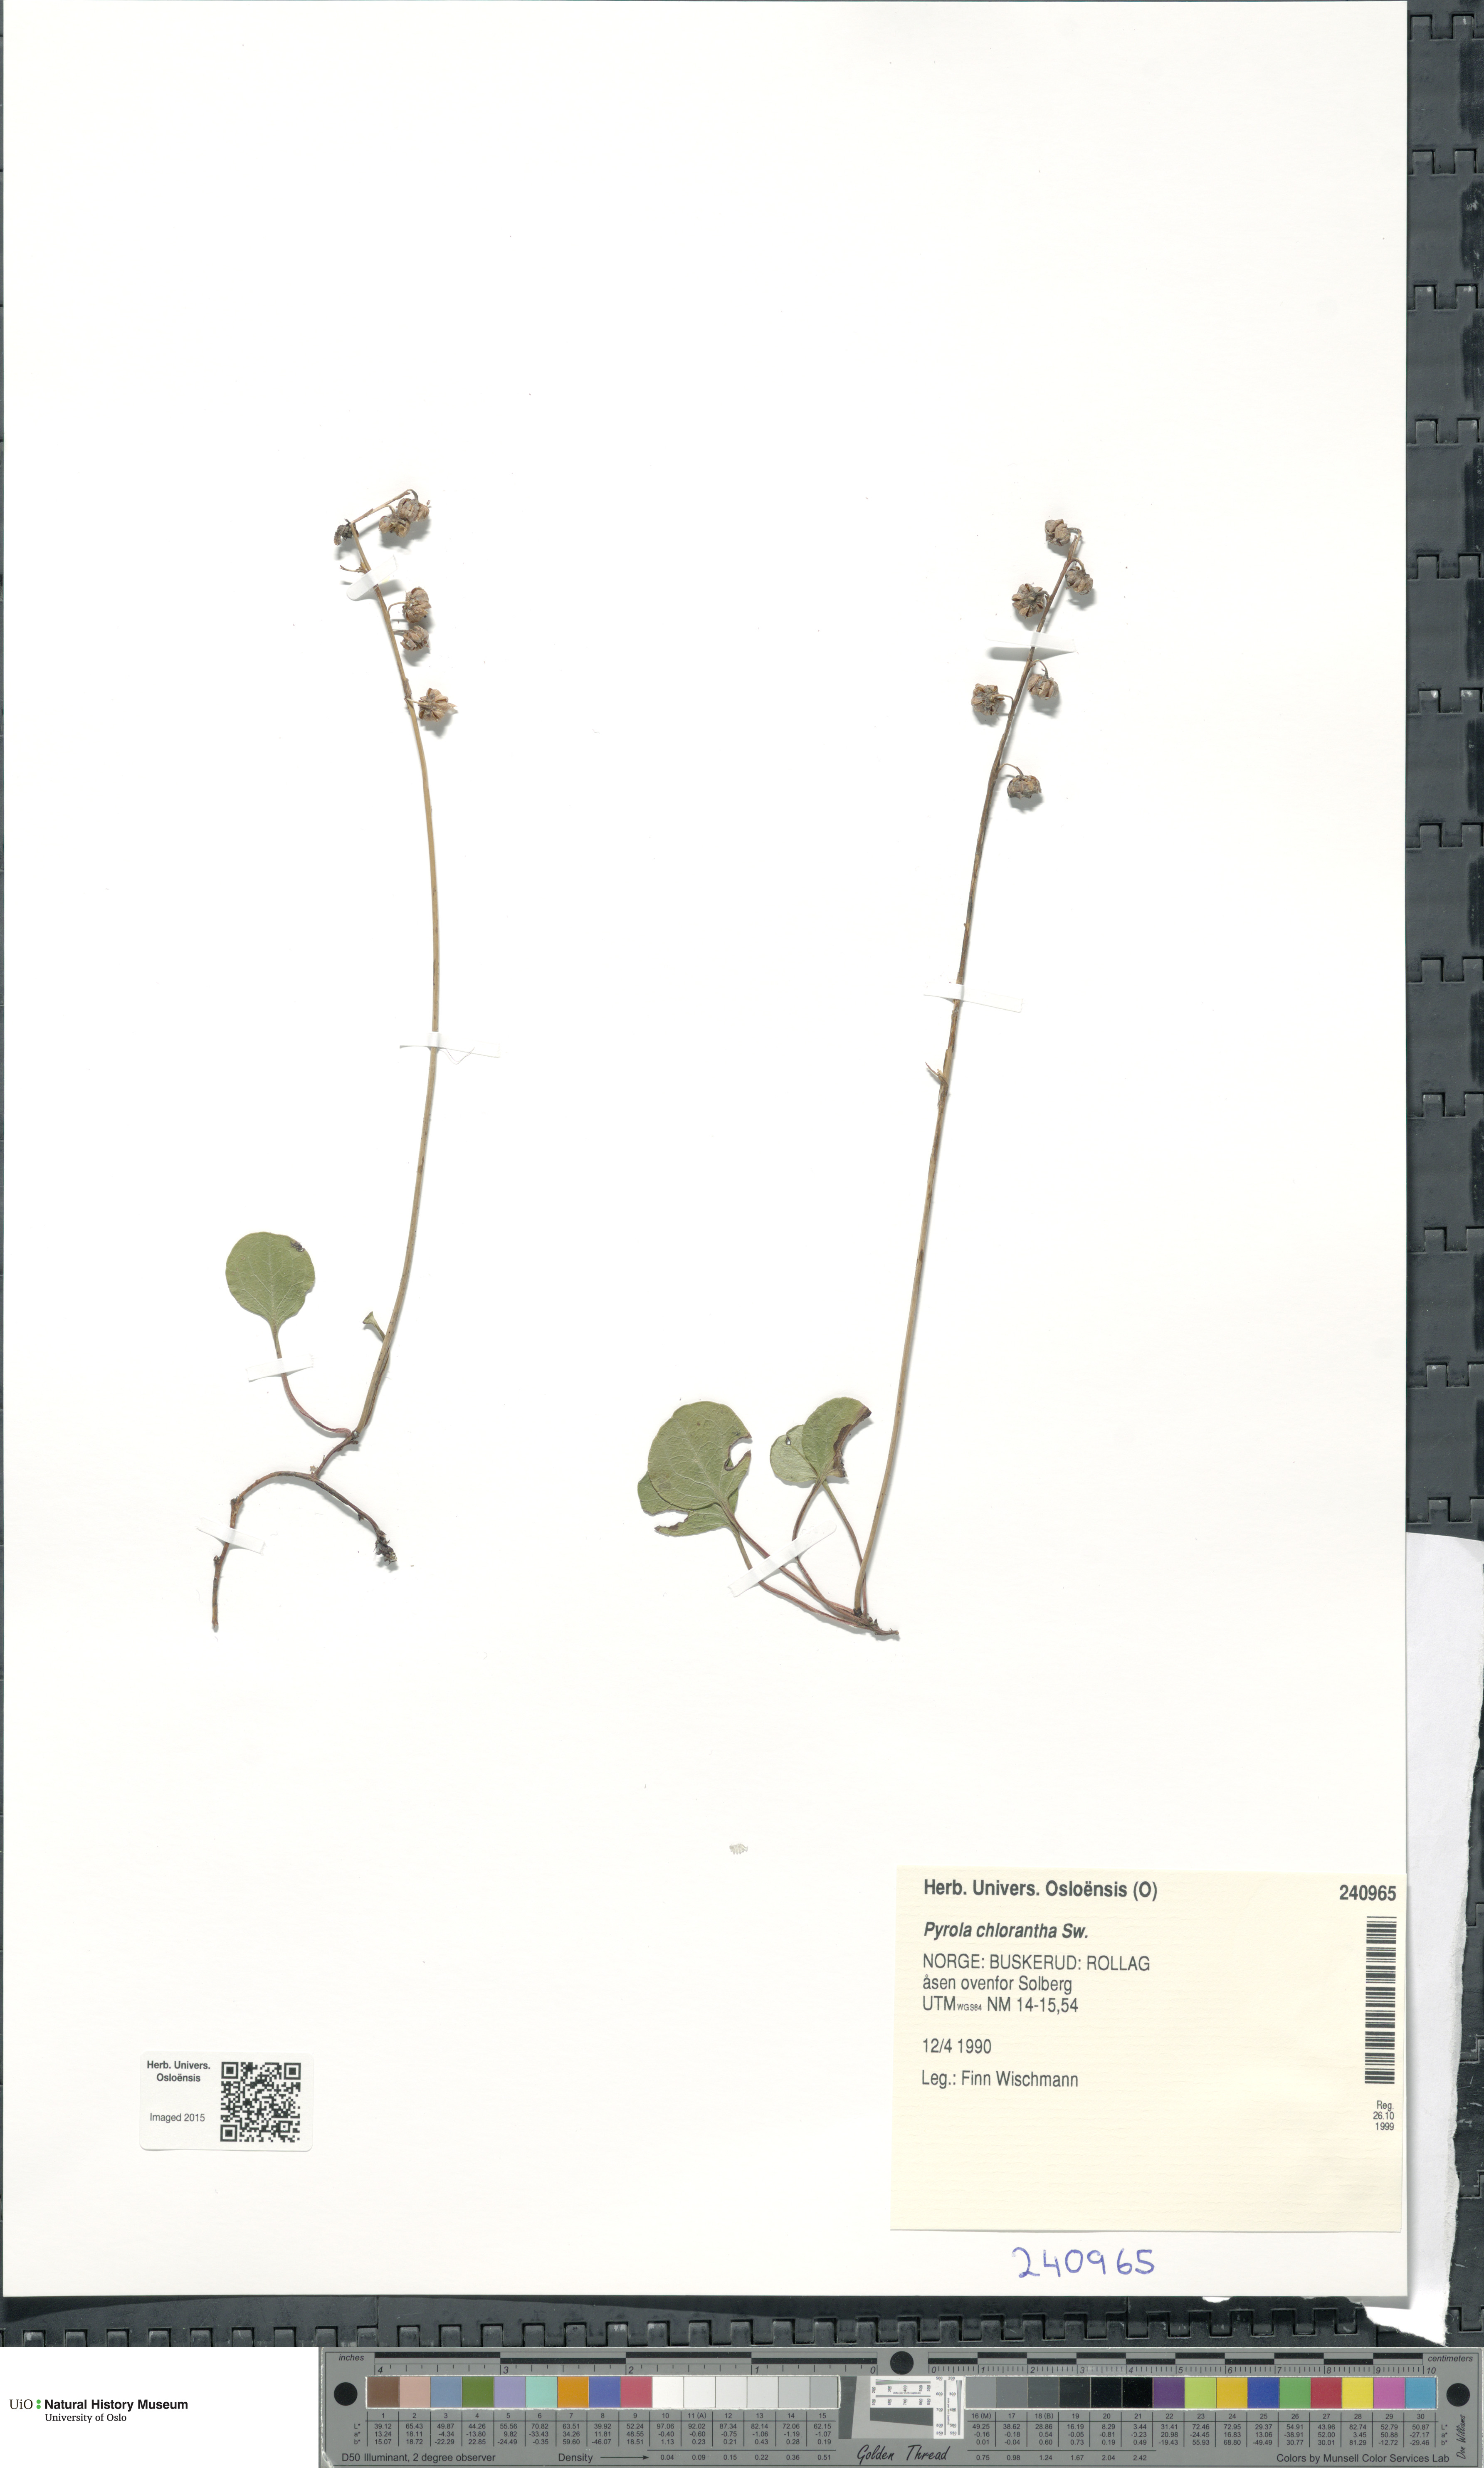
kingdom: Plantae
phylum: Tracheophyta
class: Magnoliopsida
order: Ericales
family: Ericaceae
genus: Pyrola
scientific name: Pyrola chlorantha
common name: Green wintergreen
